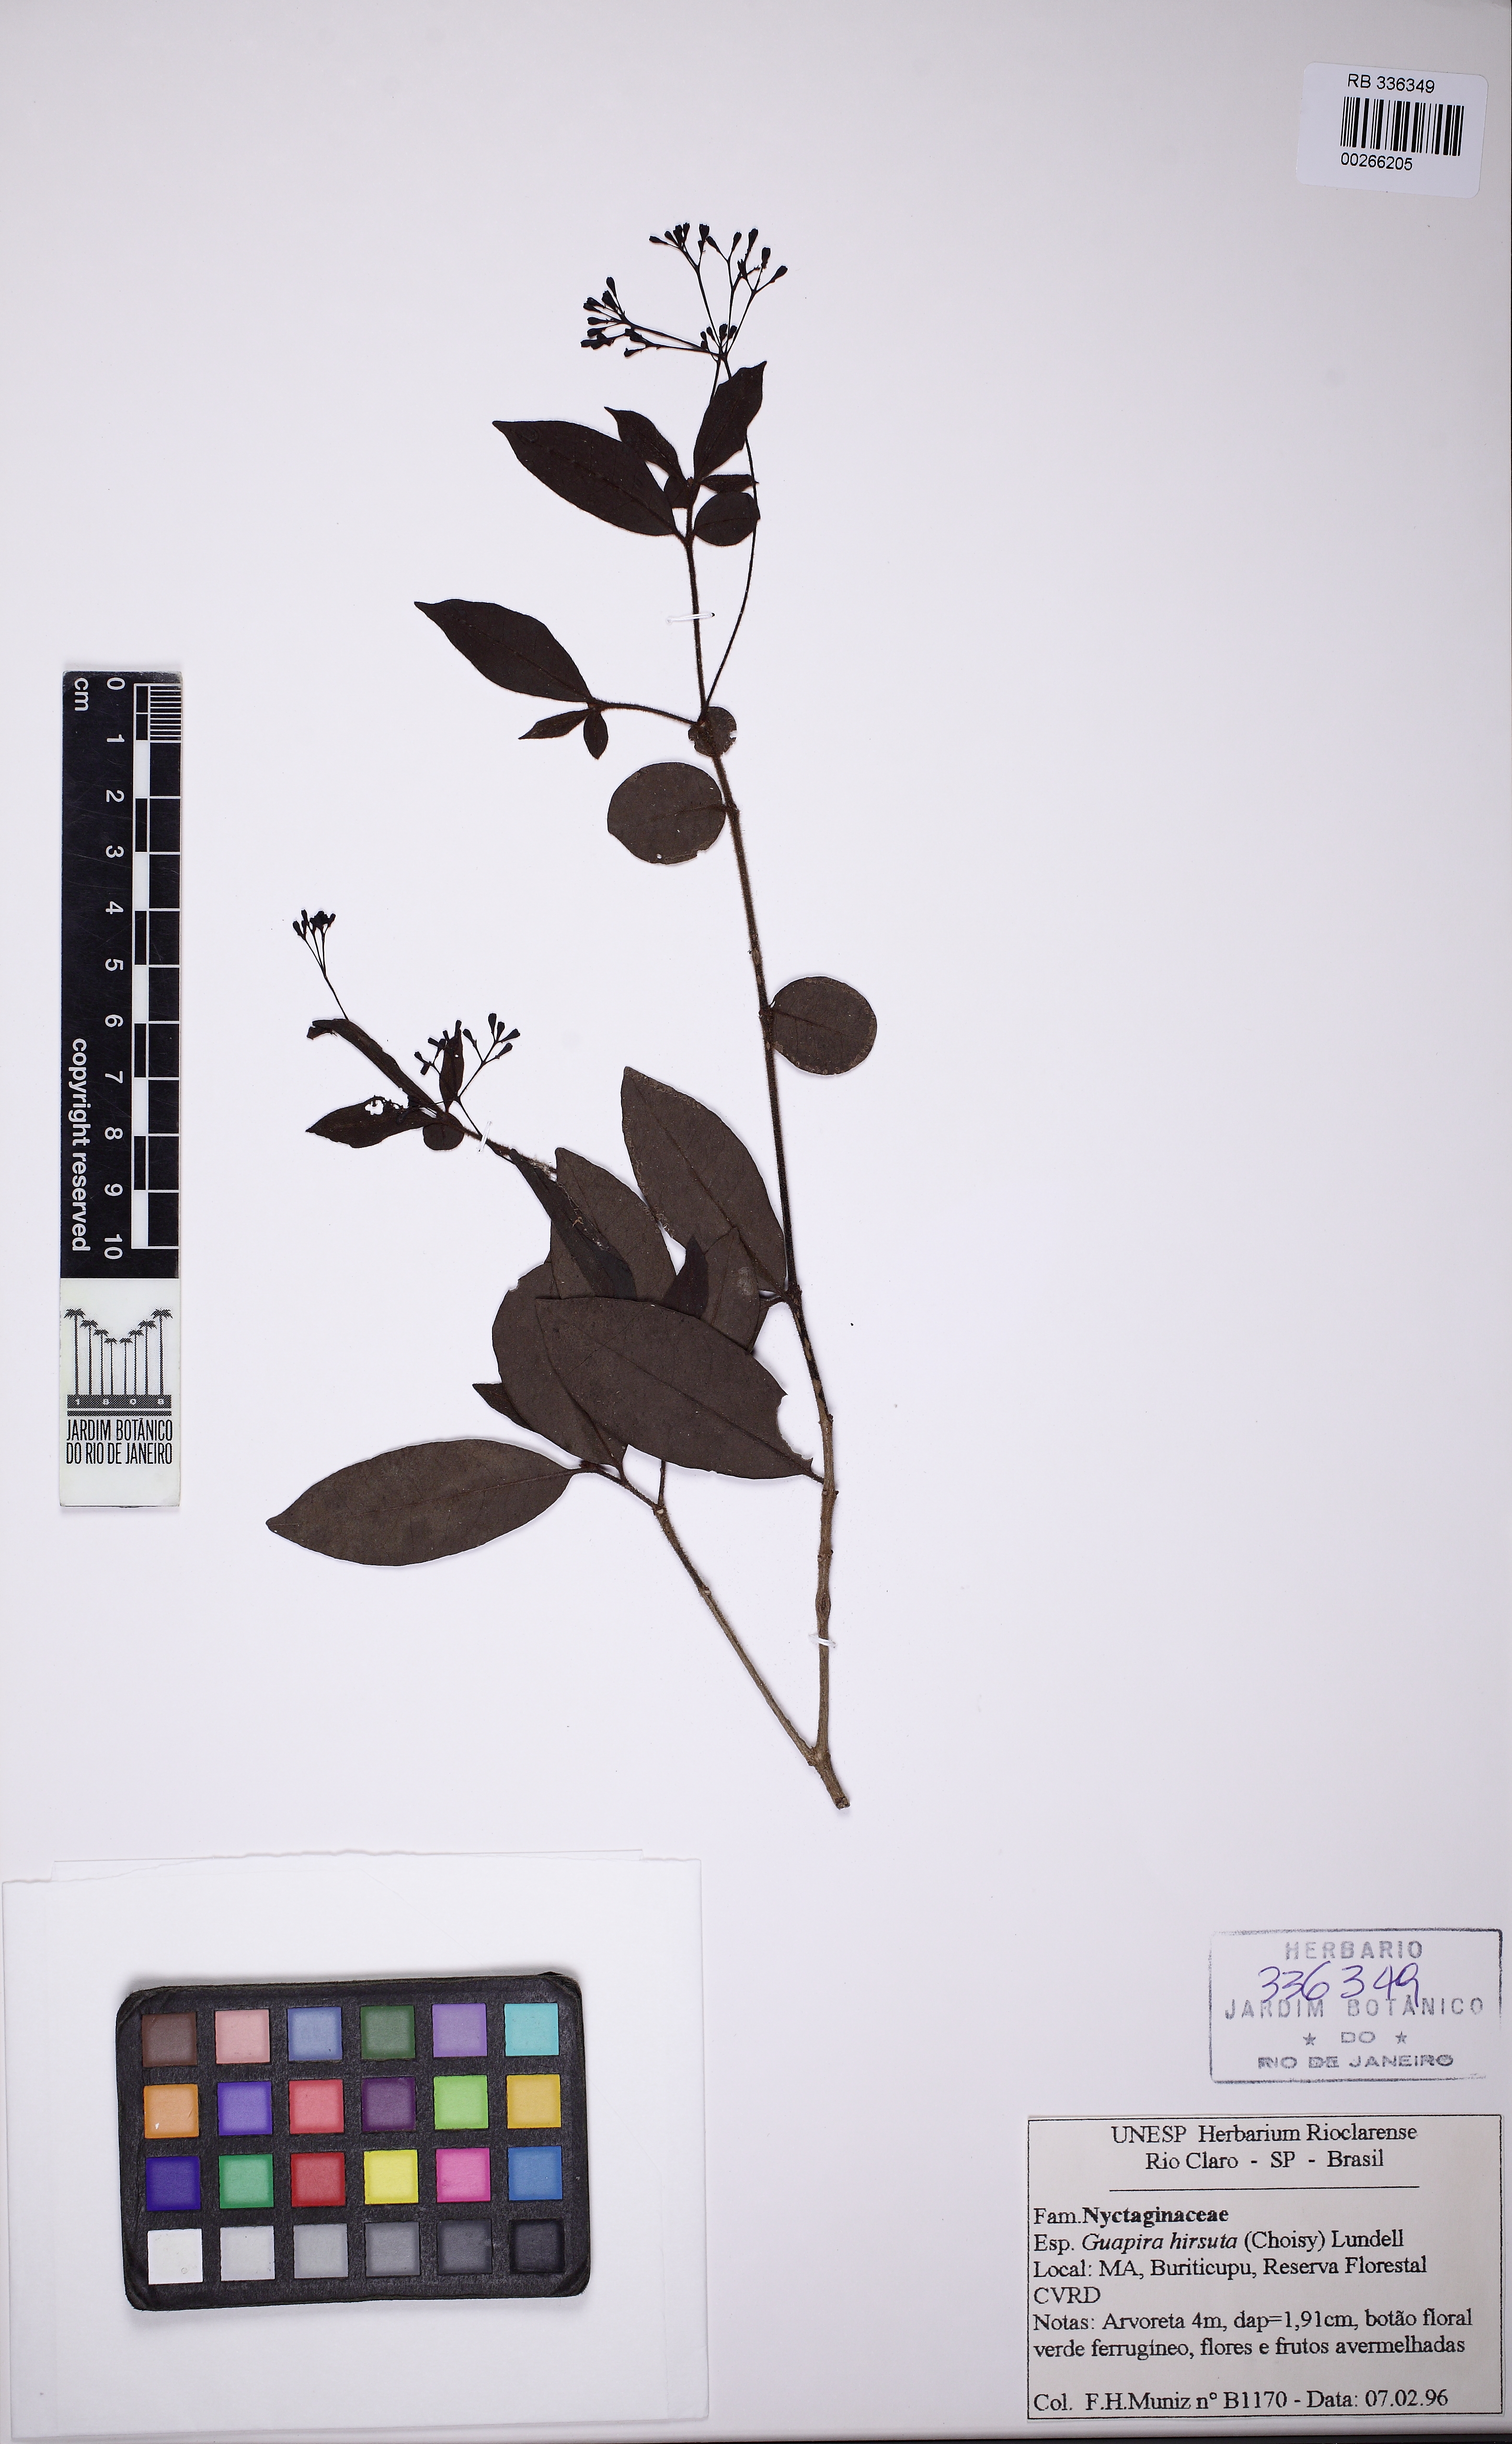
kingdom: Plantae
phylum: Tracheophyta
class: Magnoliopsida
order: Caryophyllales
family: Nyctaginaceae
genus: Guapira
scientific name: Guapira hirsuta
